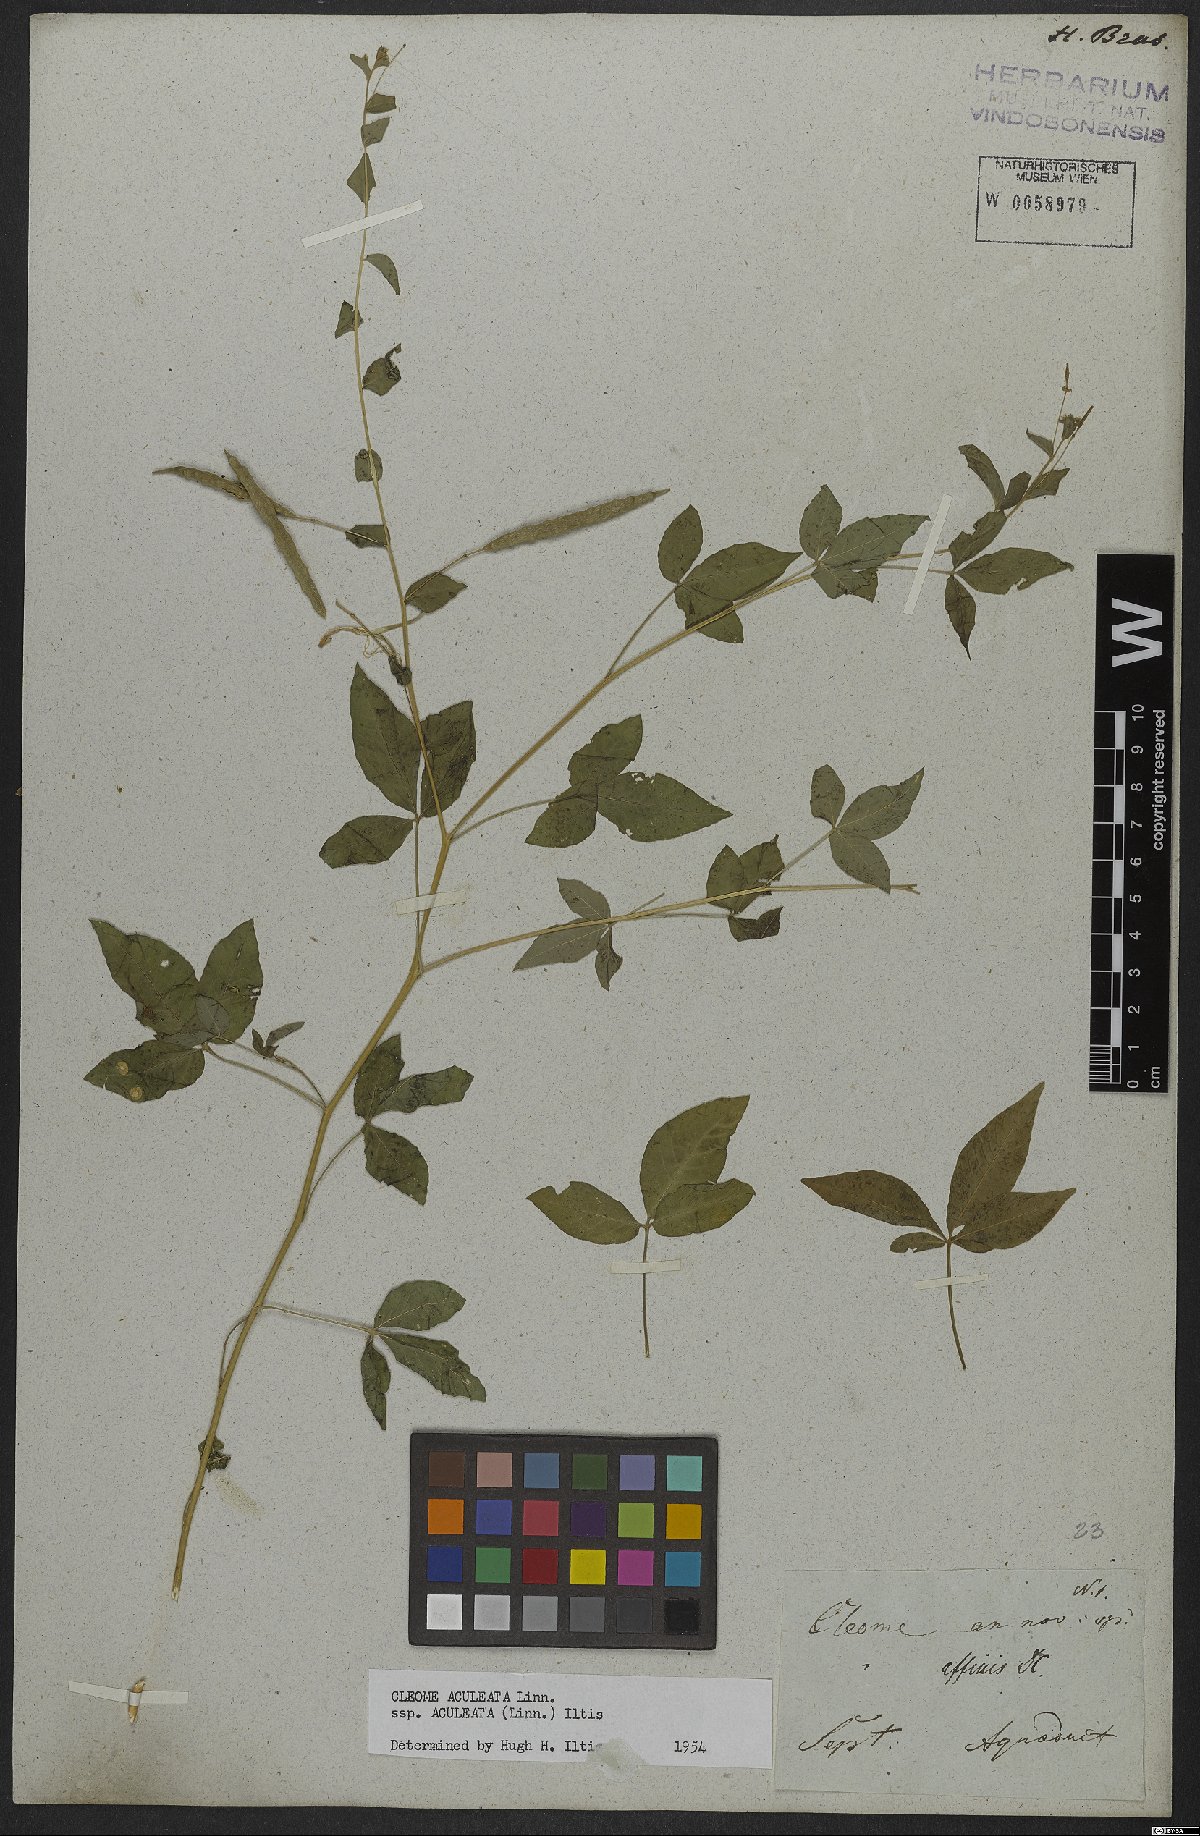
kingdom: Plantae
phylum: Tracheophyta
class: Magnoliopsida
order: Brassicales
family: Cleomaceae
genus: Tarenaya
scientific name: Tarenaya aculeata
